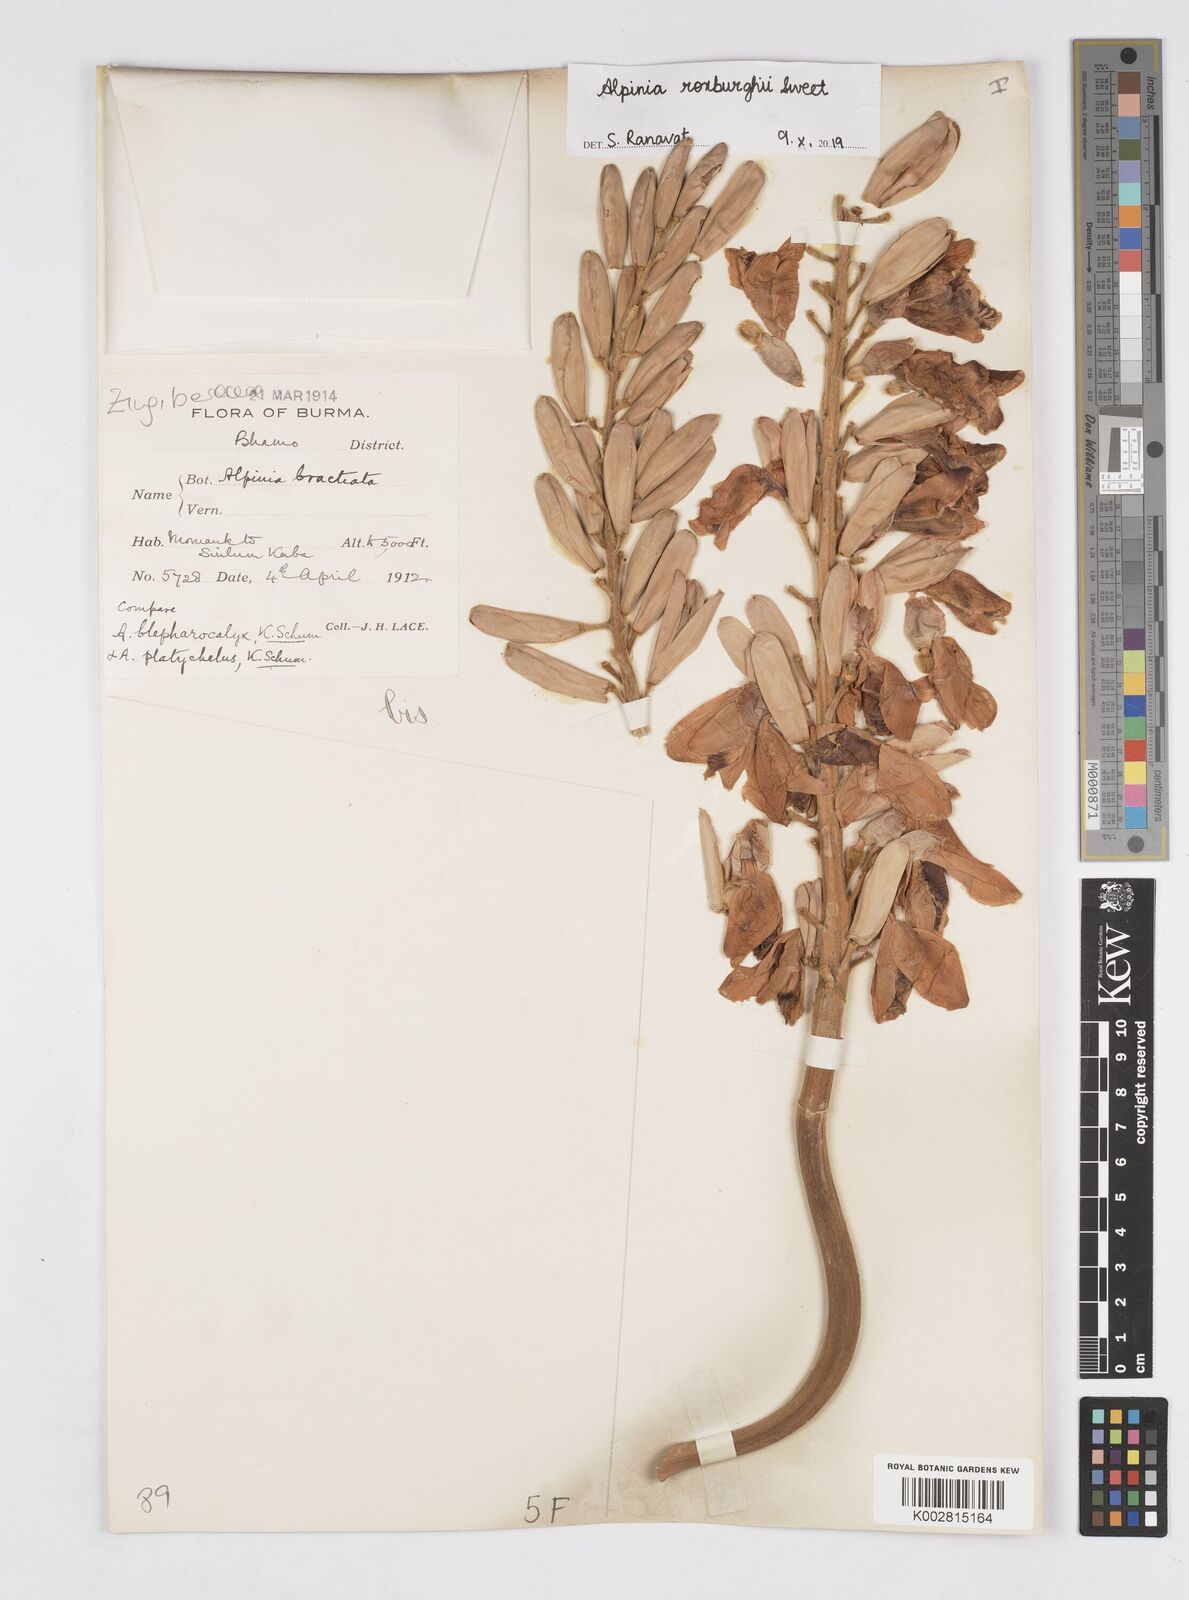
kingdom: Plantae
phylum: Tracheophyta
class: Liliopsida
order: Zingiberales
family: Zingiberaceae
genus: Alpinia
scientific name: Alpinia roxburghii
